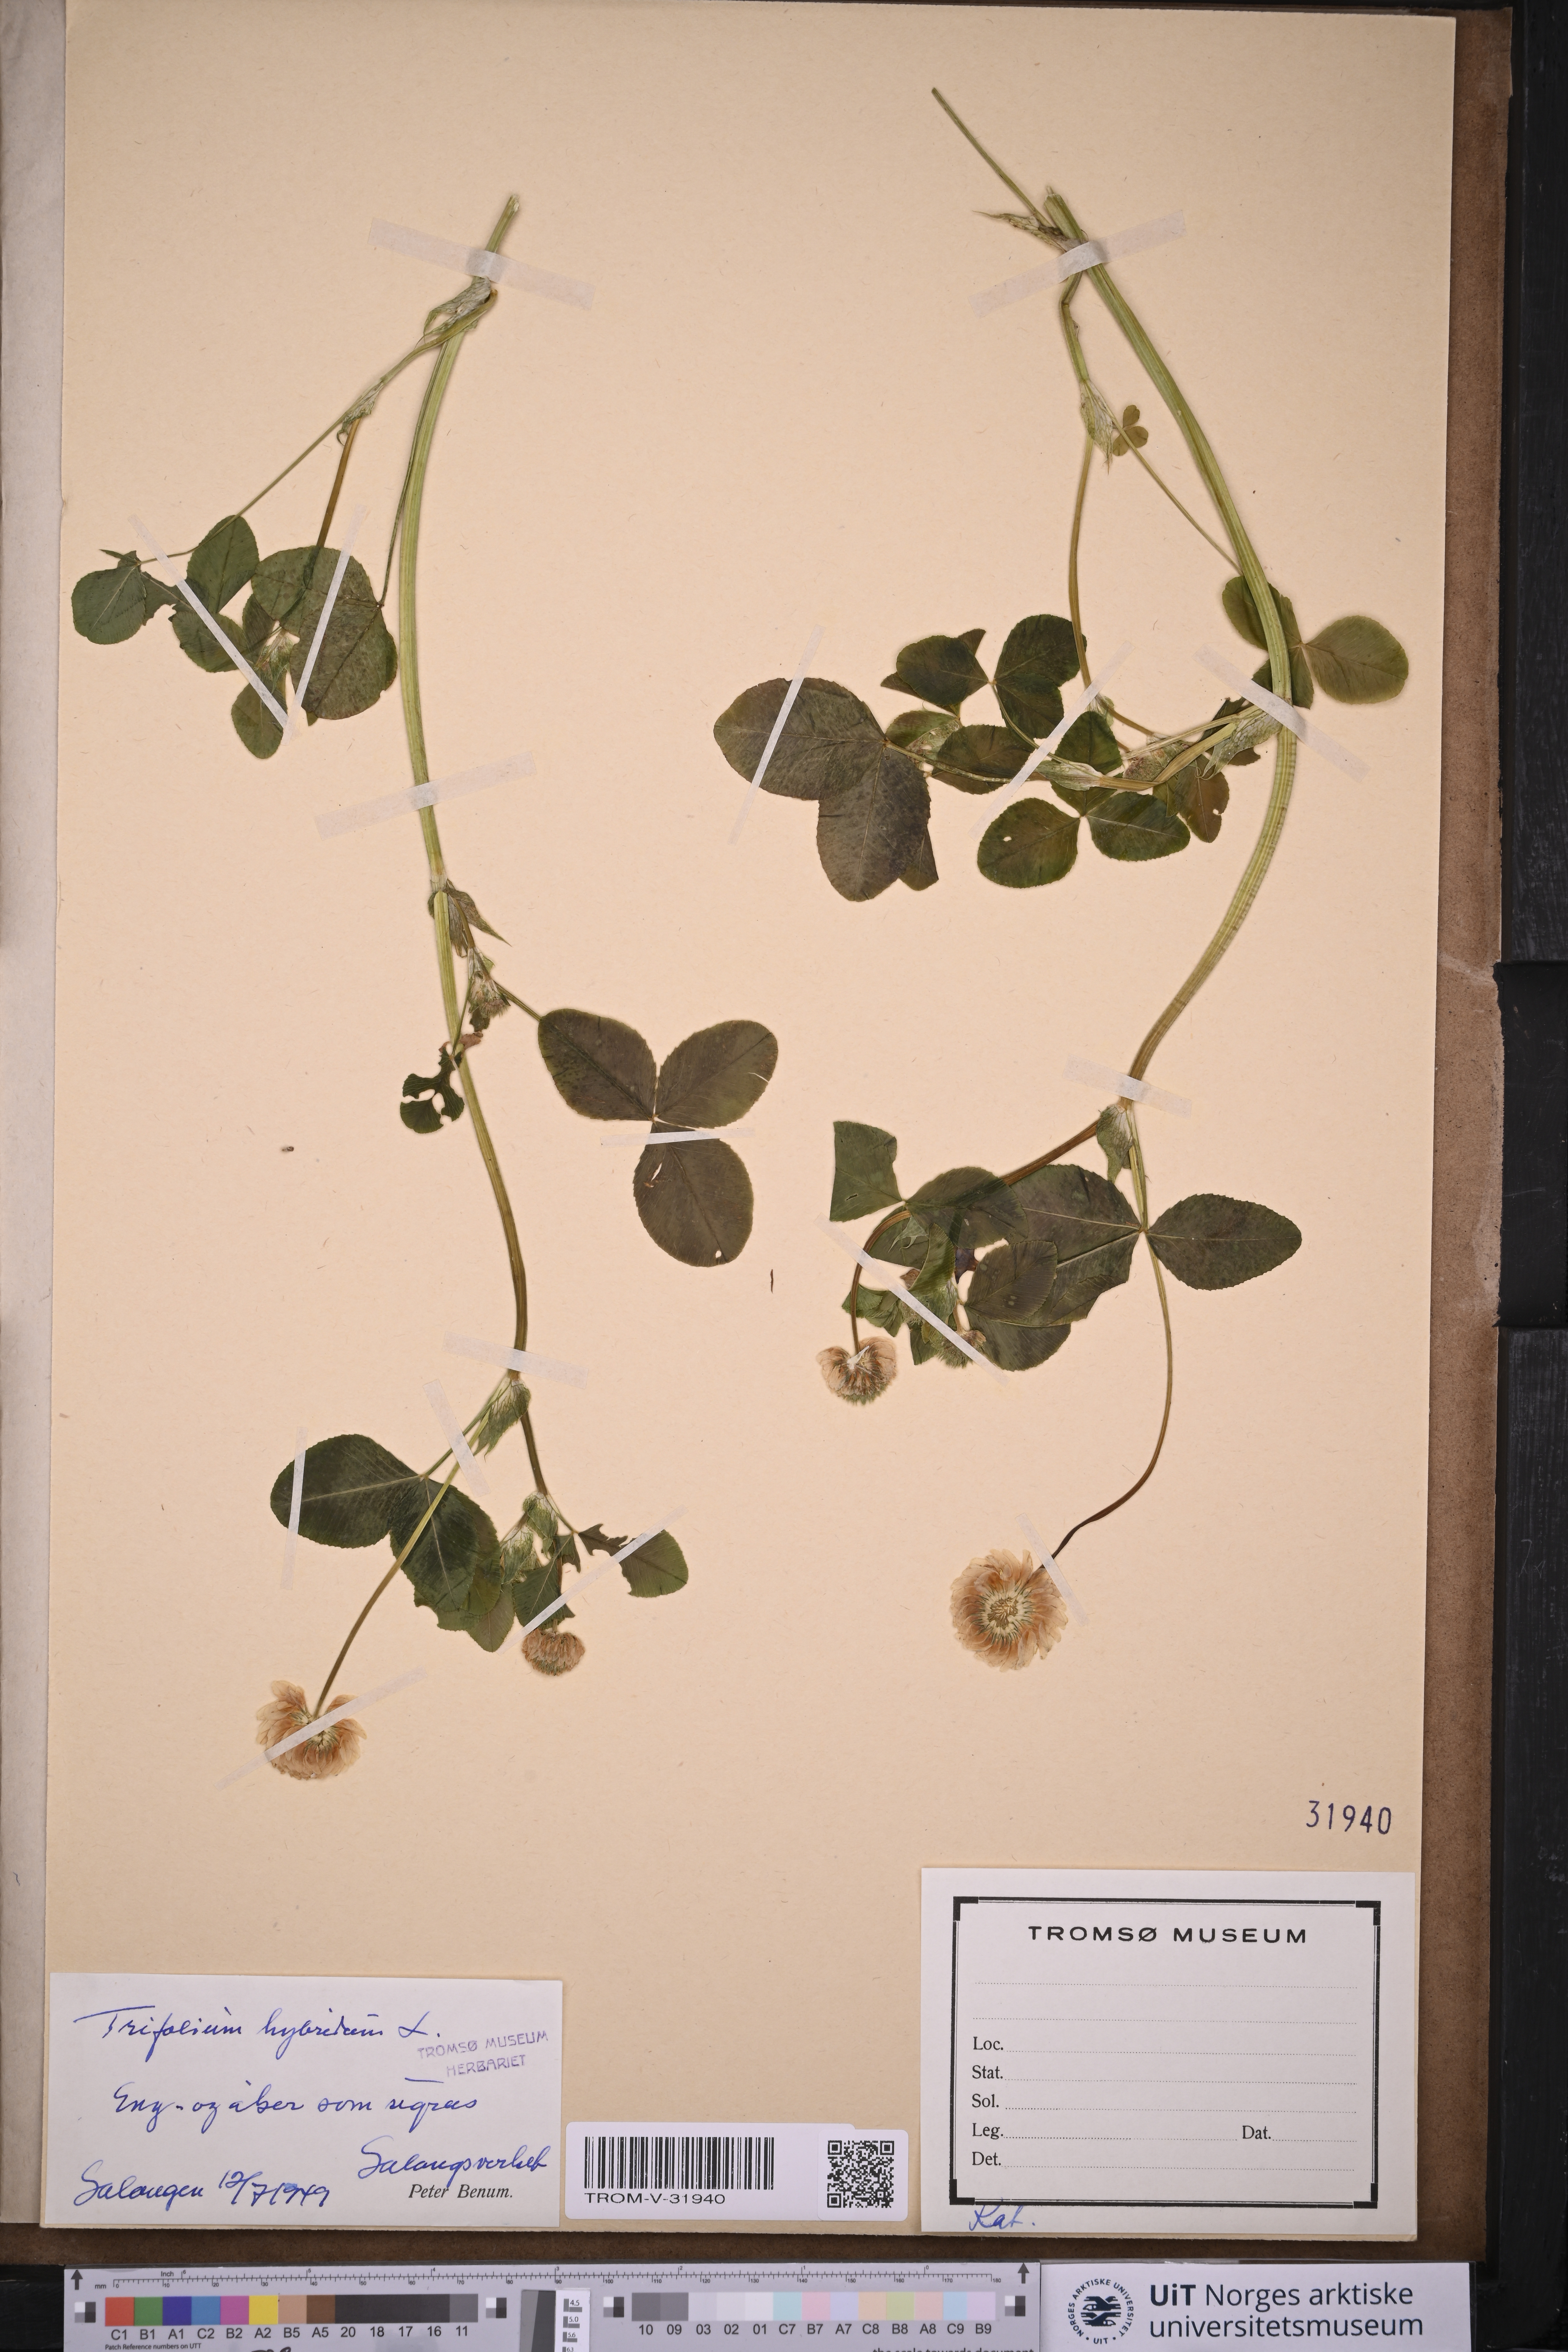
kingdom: Plantae
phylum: Tracheophyta
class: Magnoliopsida
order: Fabales
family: Fabaceae
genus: Trifolium
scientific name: Trifolium hybridum
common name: Alsike clover
